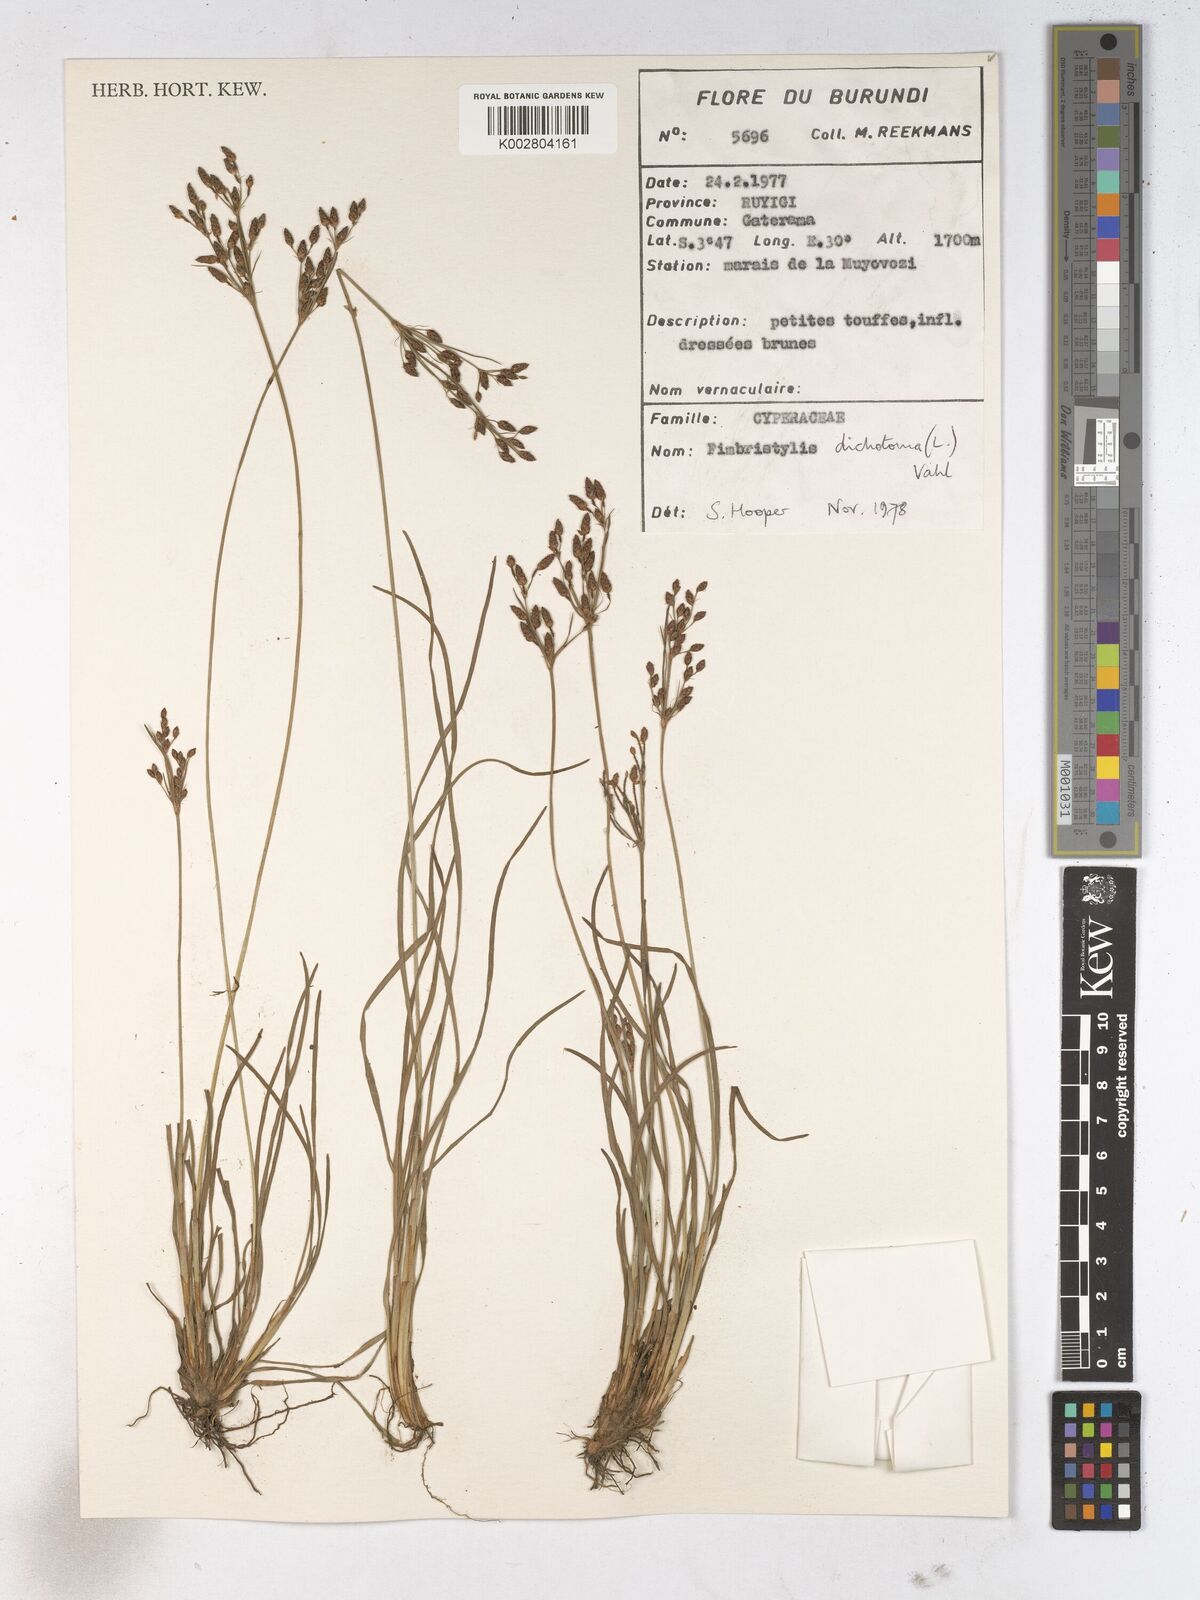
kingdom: Plantae
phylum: Tracheophyta
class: Liliopsida
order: Poales
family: Cyperaceae
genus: Fimbristylis
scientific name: Fimbristylis dichotoma
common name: Forked fimbry
